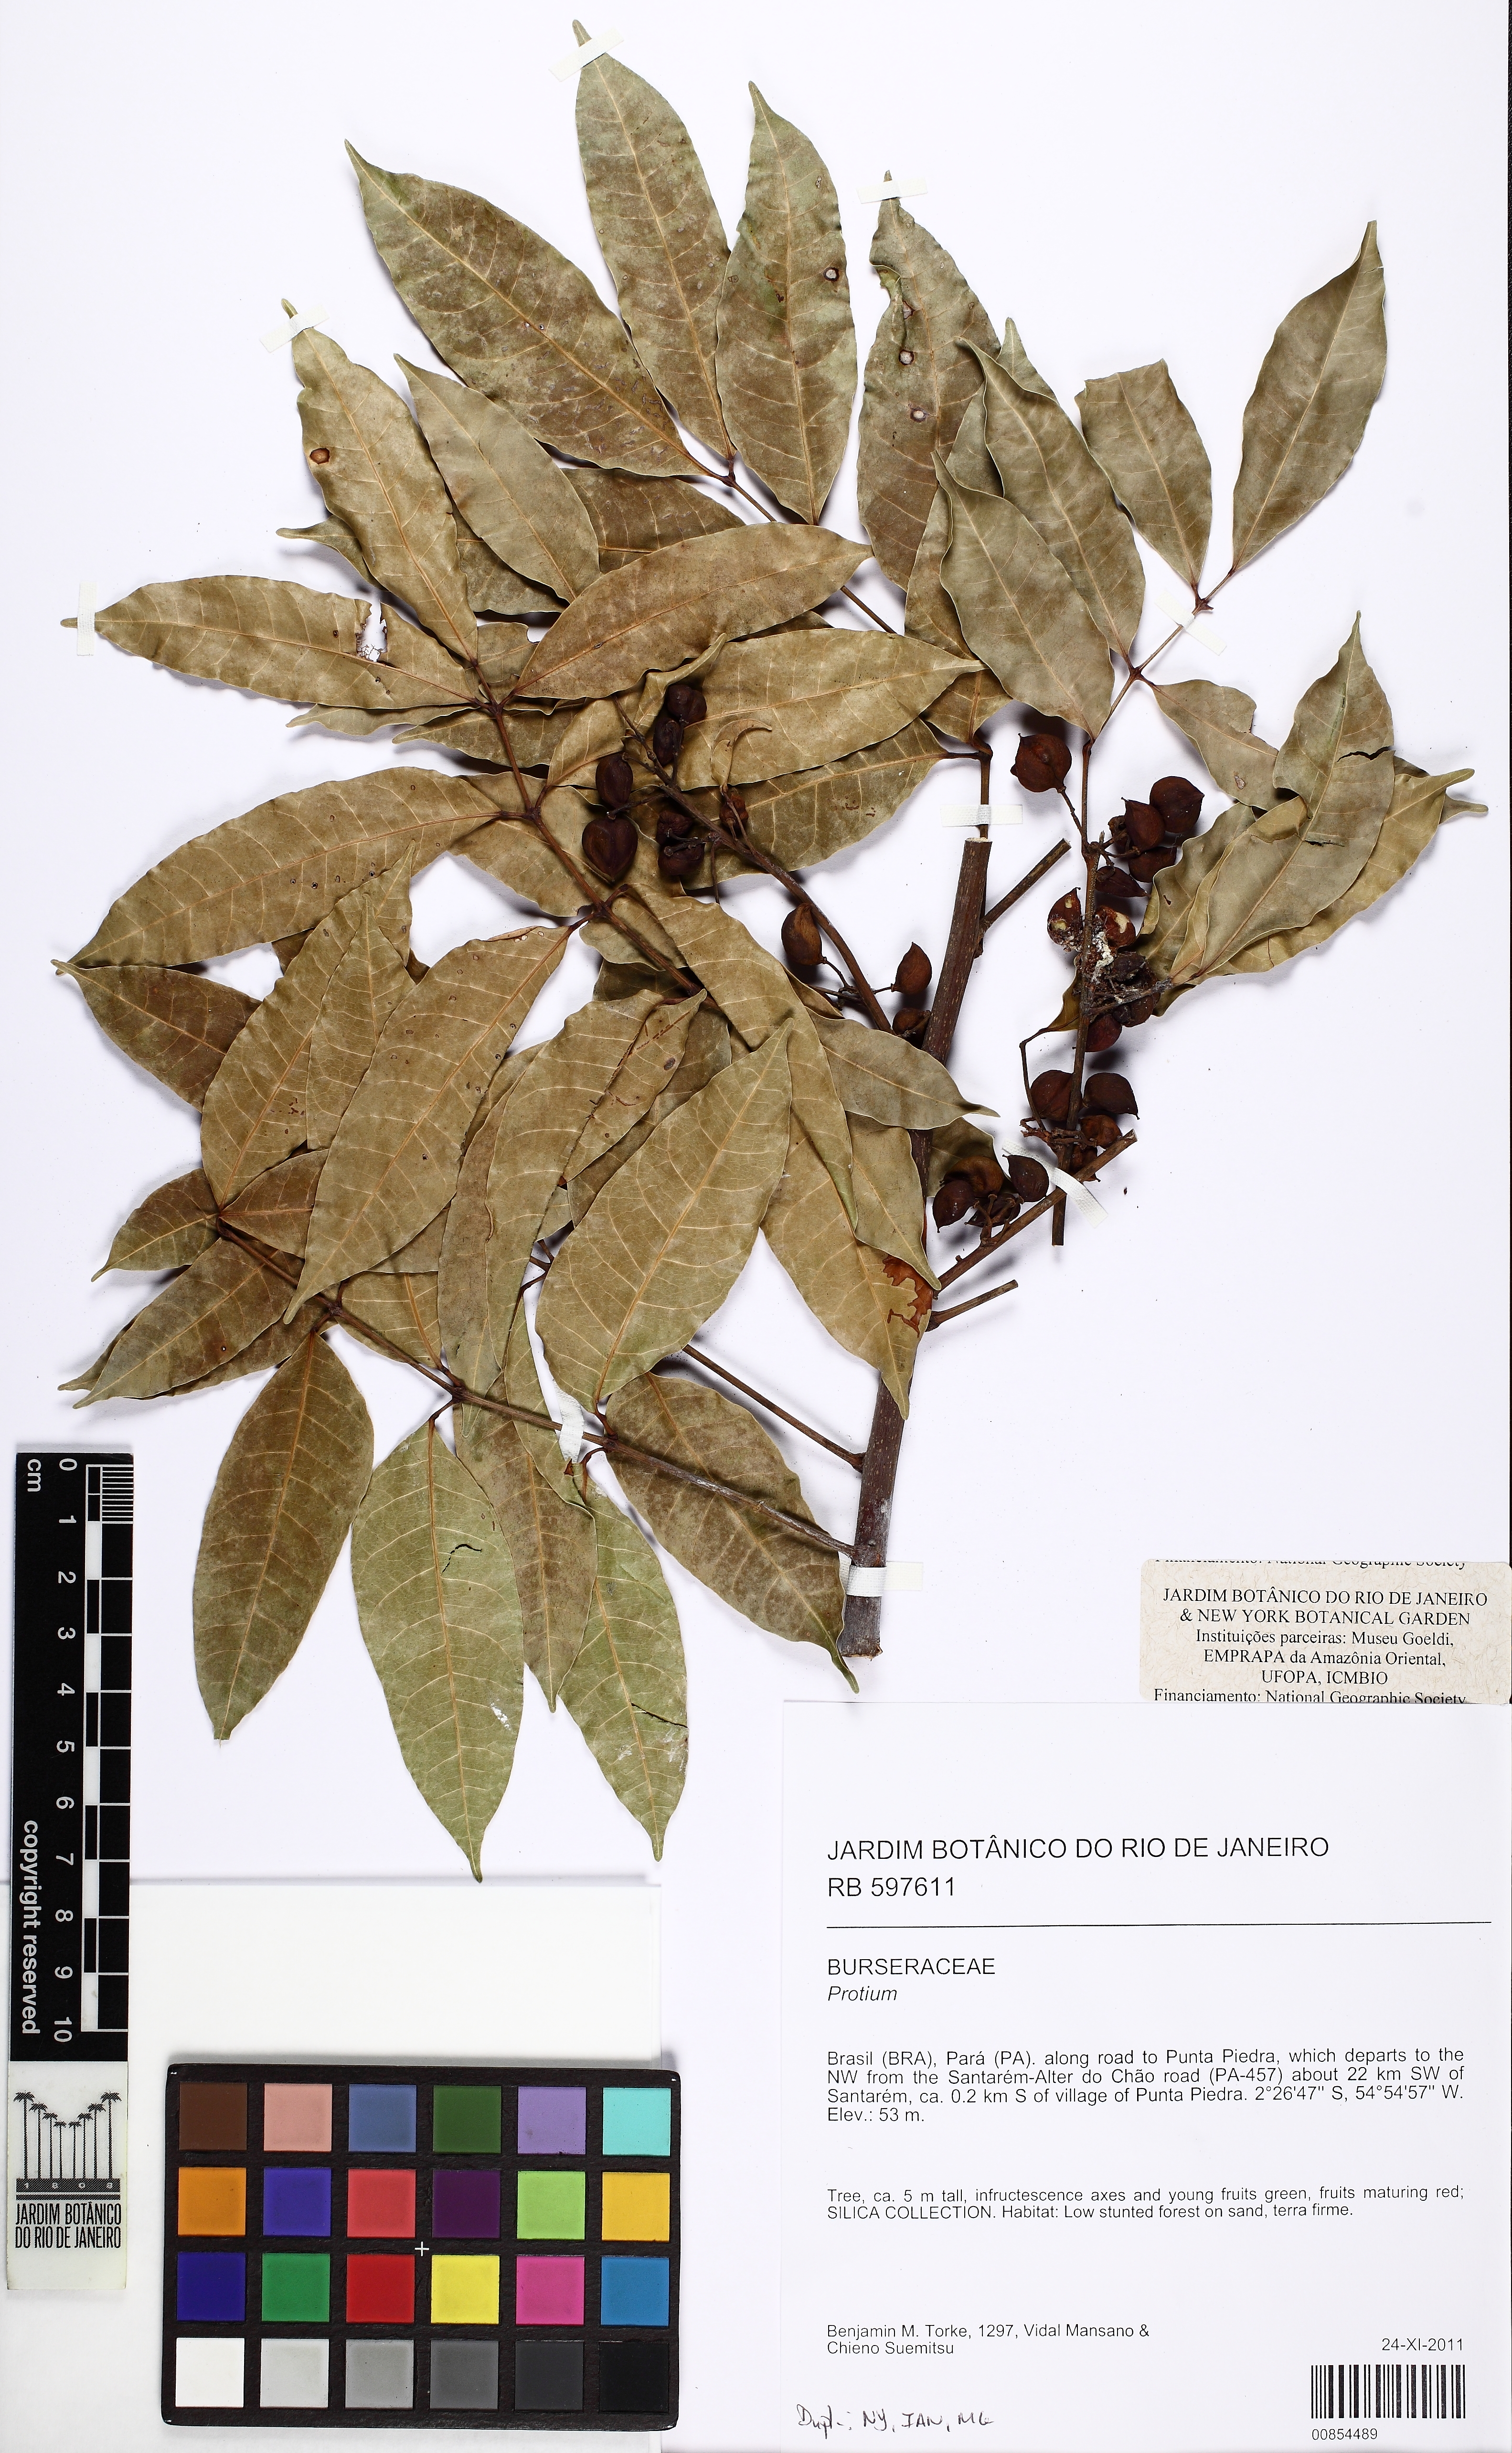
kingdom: Plantae
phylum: Tracheophyta
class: Magnoliopsida
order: Sapindales
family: Burseraceae
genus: Protium
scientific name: Protium heptaphyllum
